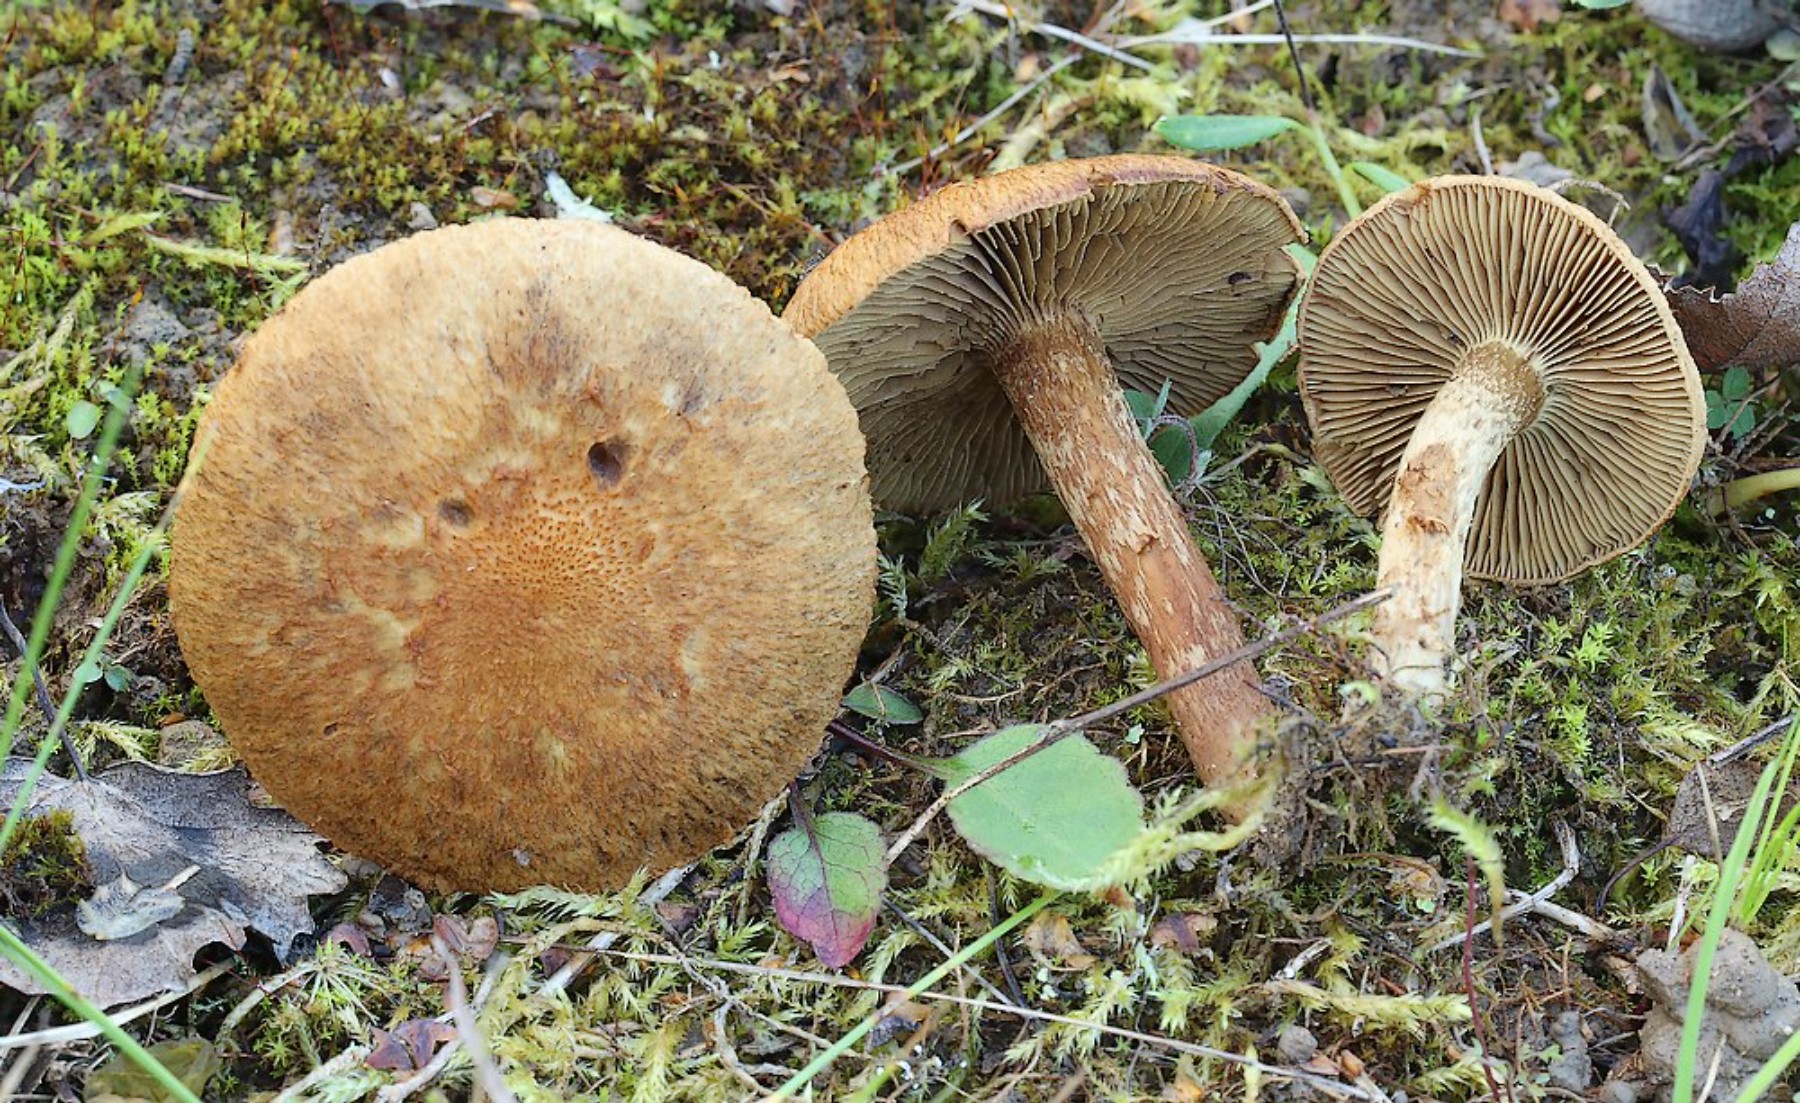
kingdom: Fungi
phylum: Basidiomycota
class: Agaricomycetes
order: Agaricales
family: Inocybaceae
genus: Mallocybe
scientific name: Mallocybe
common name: Trævlhat
